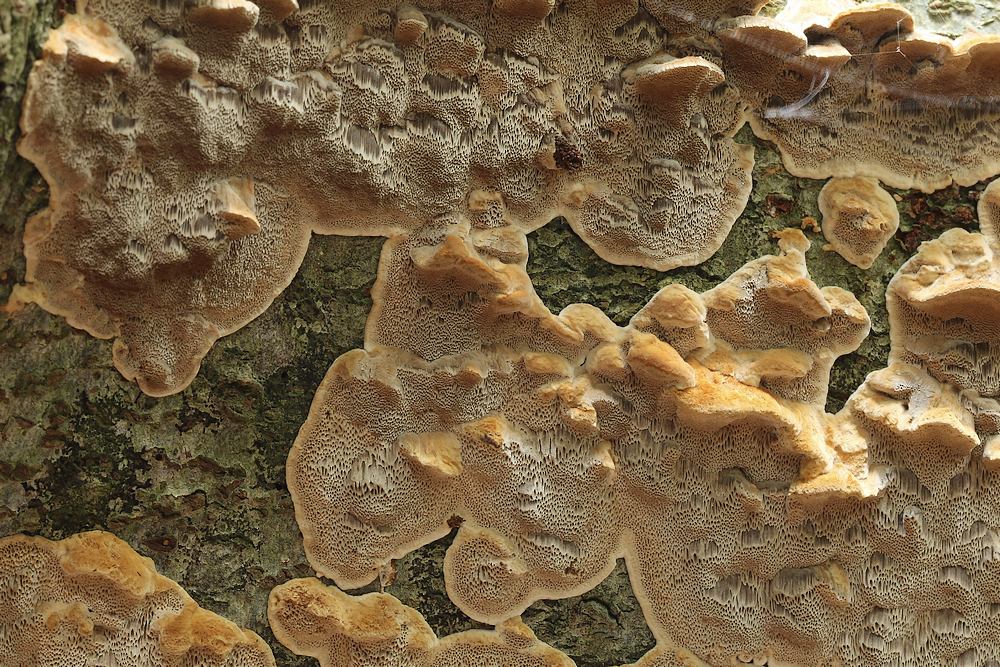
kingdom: Fungi
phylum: Basidiomycota
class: Agaricomycetes
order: Hymenochaetales
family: Hymenochaetaceae
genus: Mensularia
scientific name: Mensularia nodulosa
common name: bøge-spejlporesvamp
